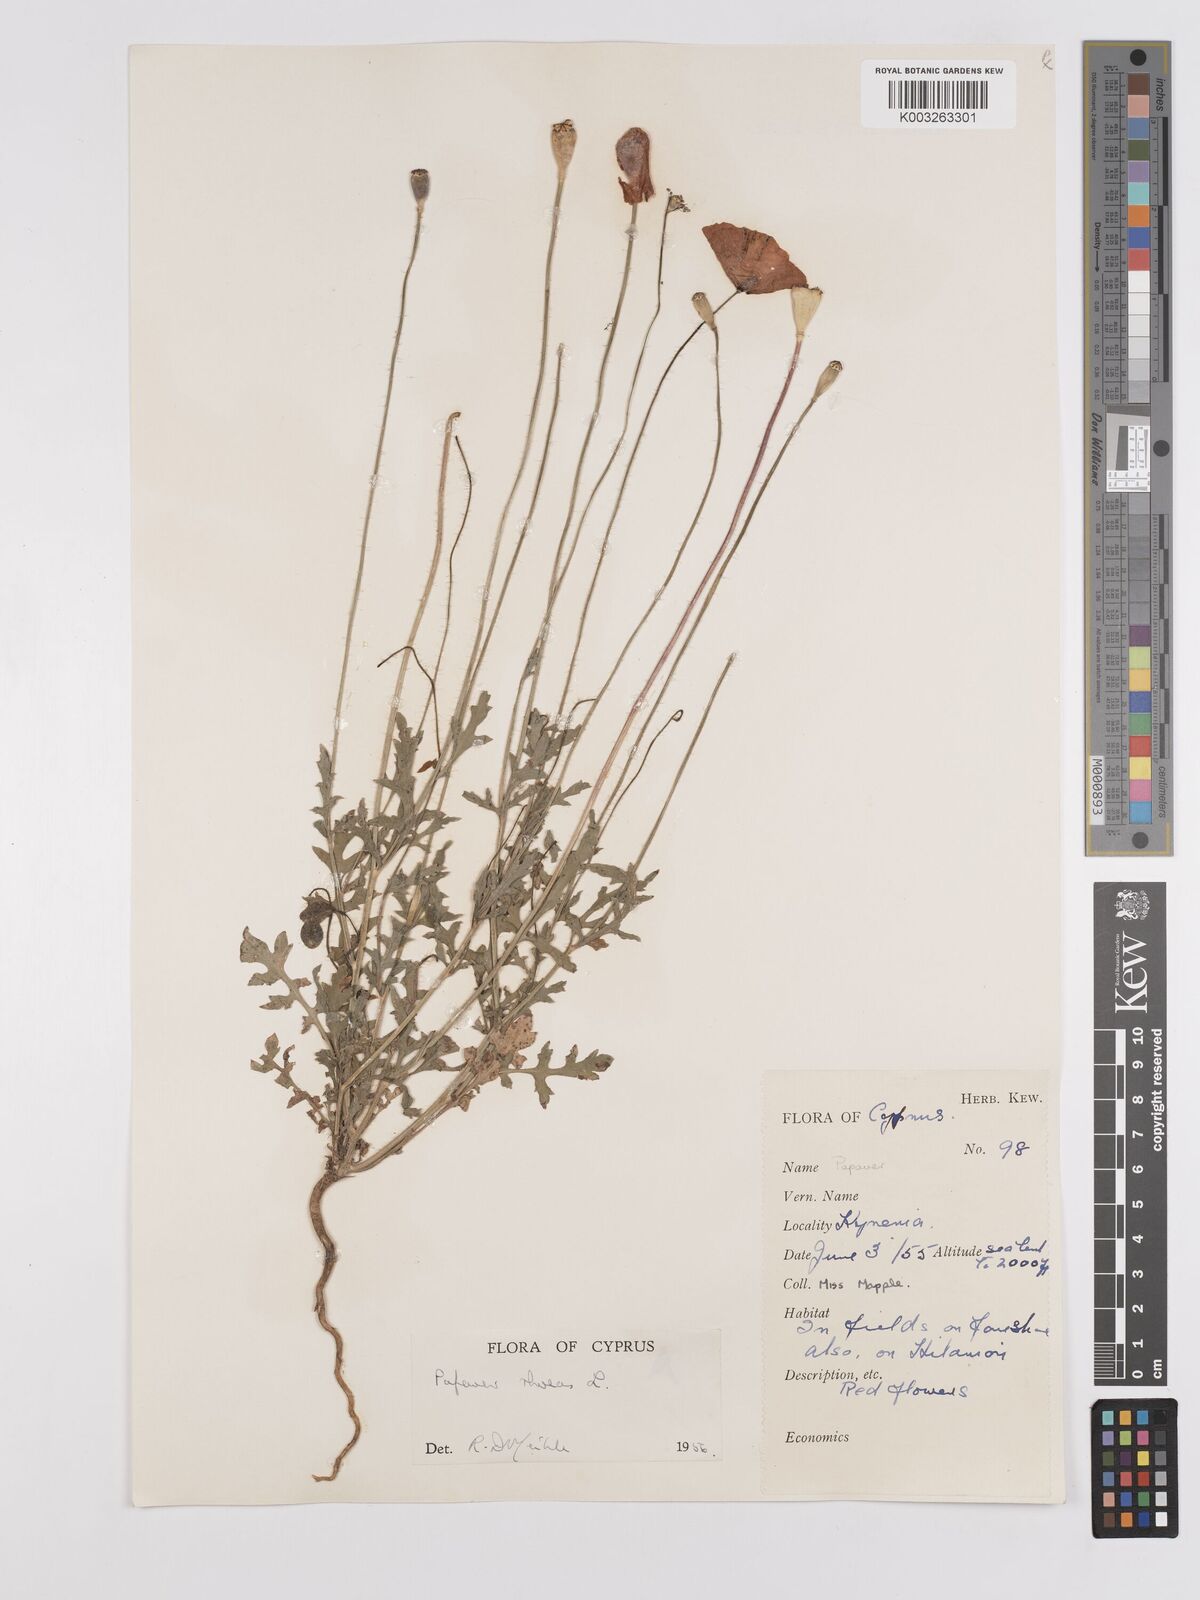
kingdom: Plantae
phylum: Tracheophyta
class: Magnoliopsida
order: Ranunculales
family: Papaveraceae
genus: Papaver
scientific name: Papaver rhoeas
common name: Corn poppy
